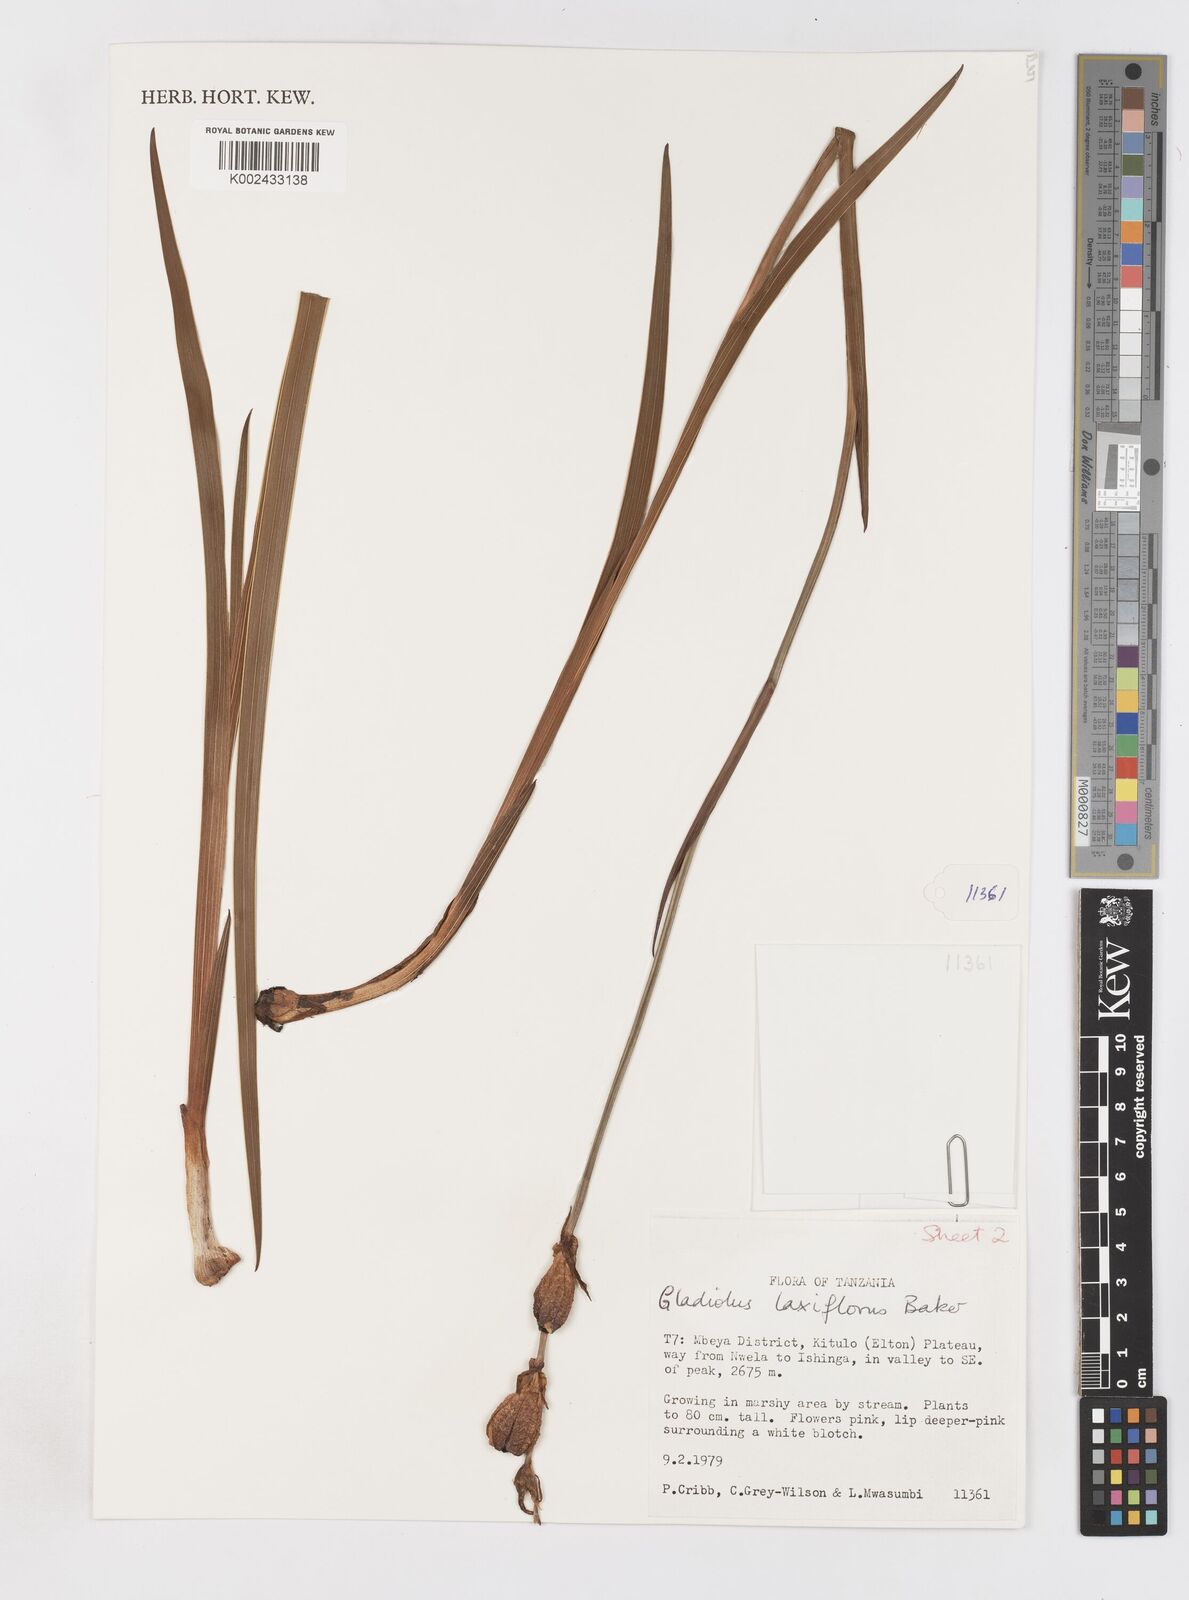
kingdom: Plantae
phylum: Tracheophyta
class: Liliopsida
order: Asparagales
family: Iridaceae
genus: Gladiolus
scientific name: Gladiolus laxiflorus
